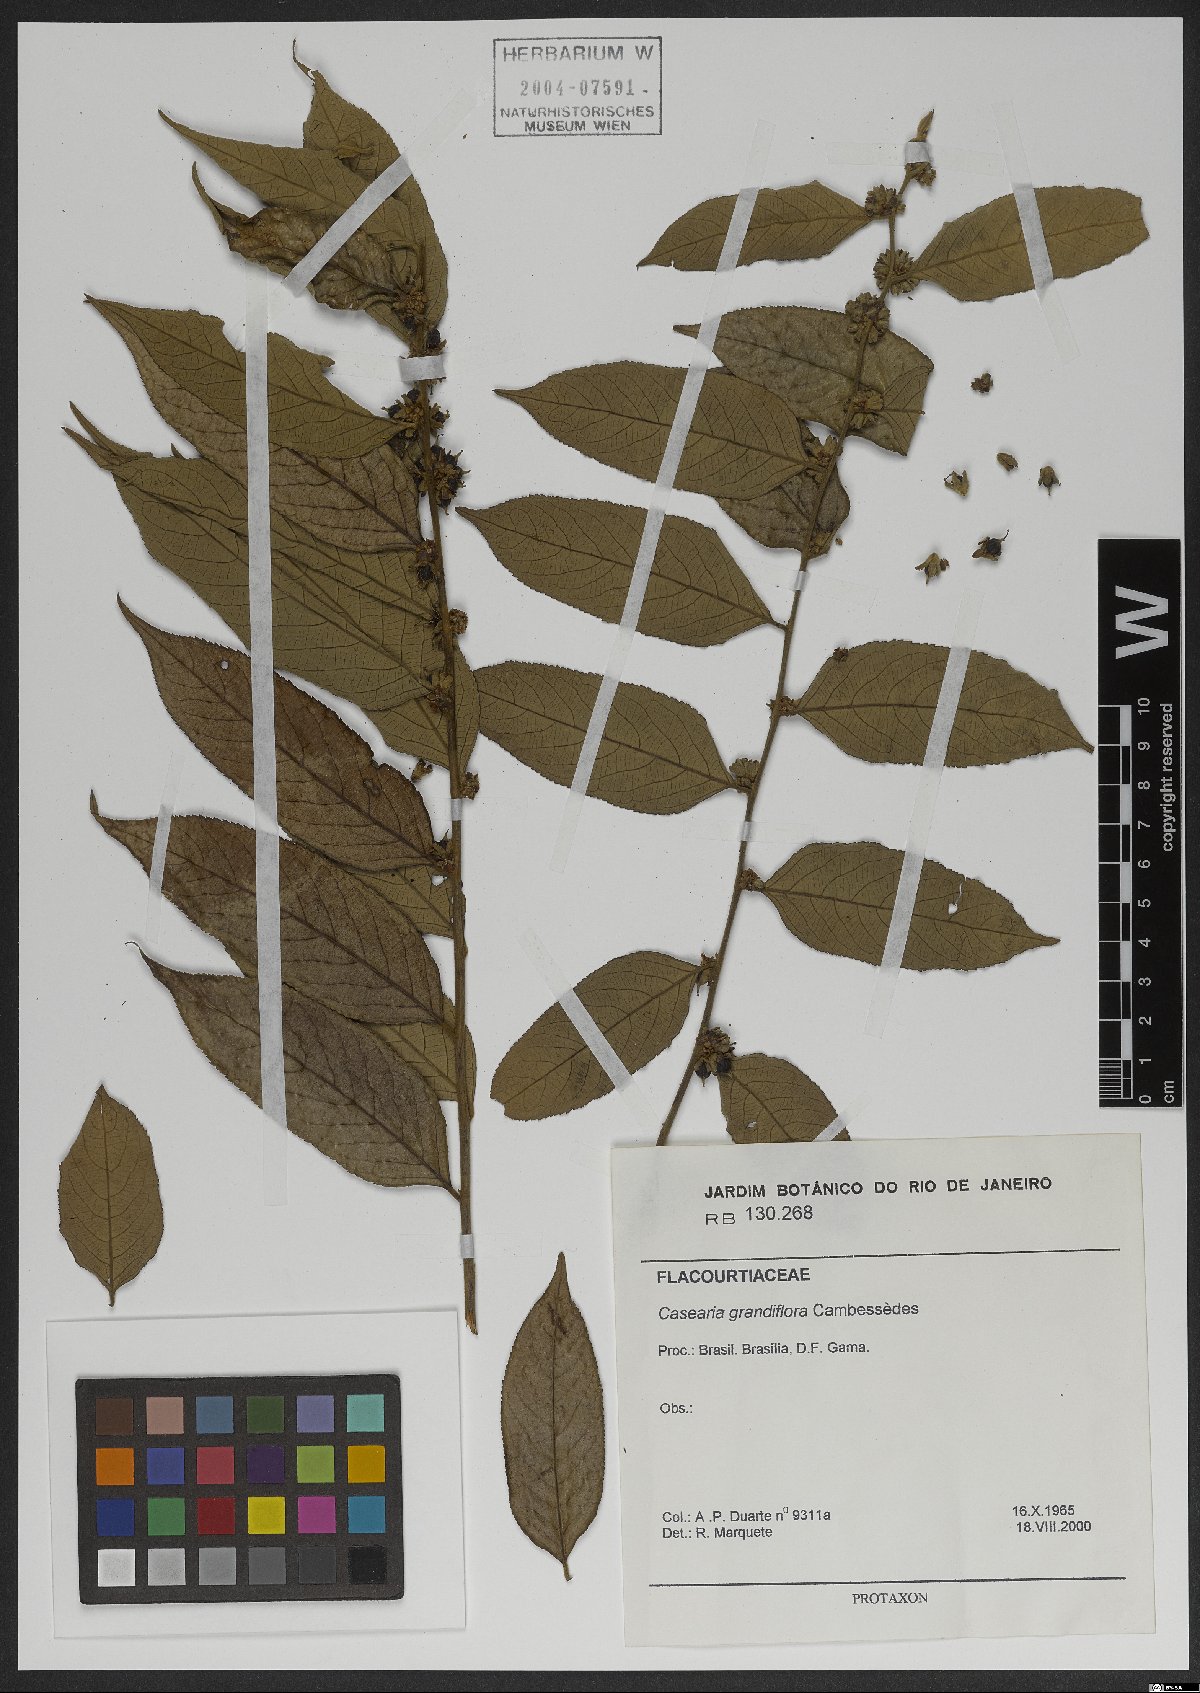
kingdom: Plantae
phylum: Tracheophyta
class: Magnoliopsida
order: Malpighiales
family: Salicaceae
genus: Casearia
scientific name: Casearia grandiflora
